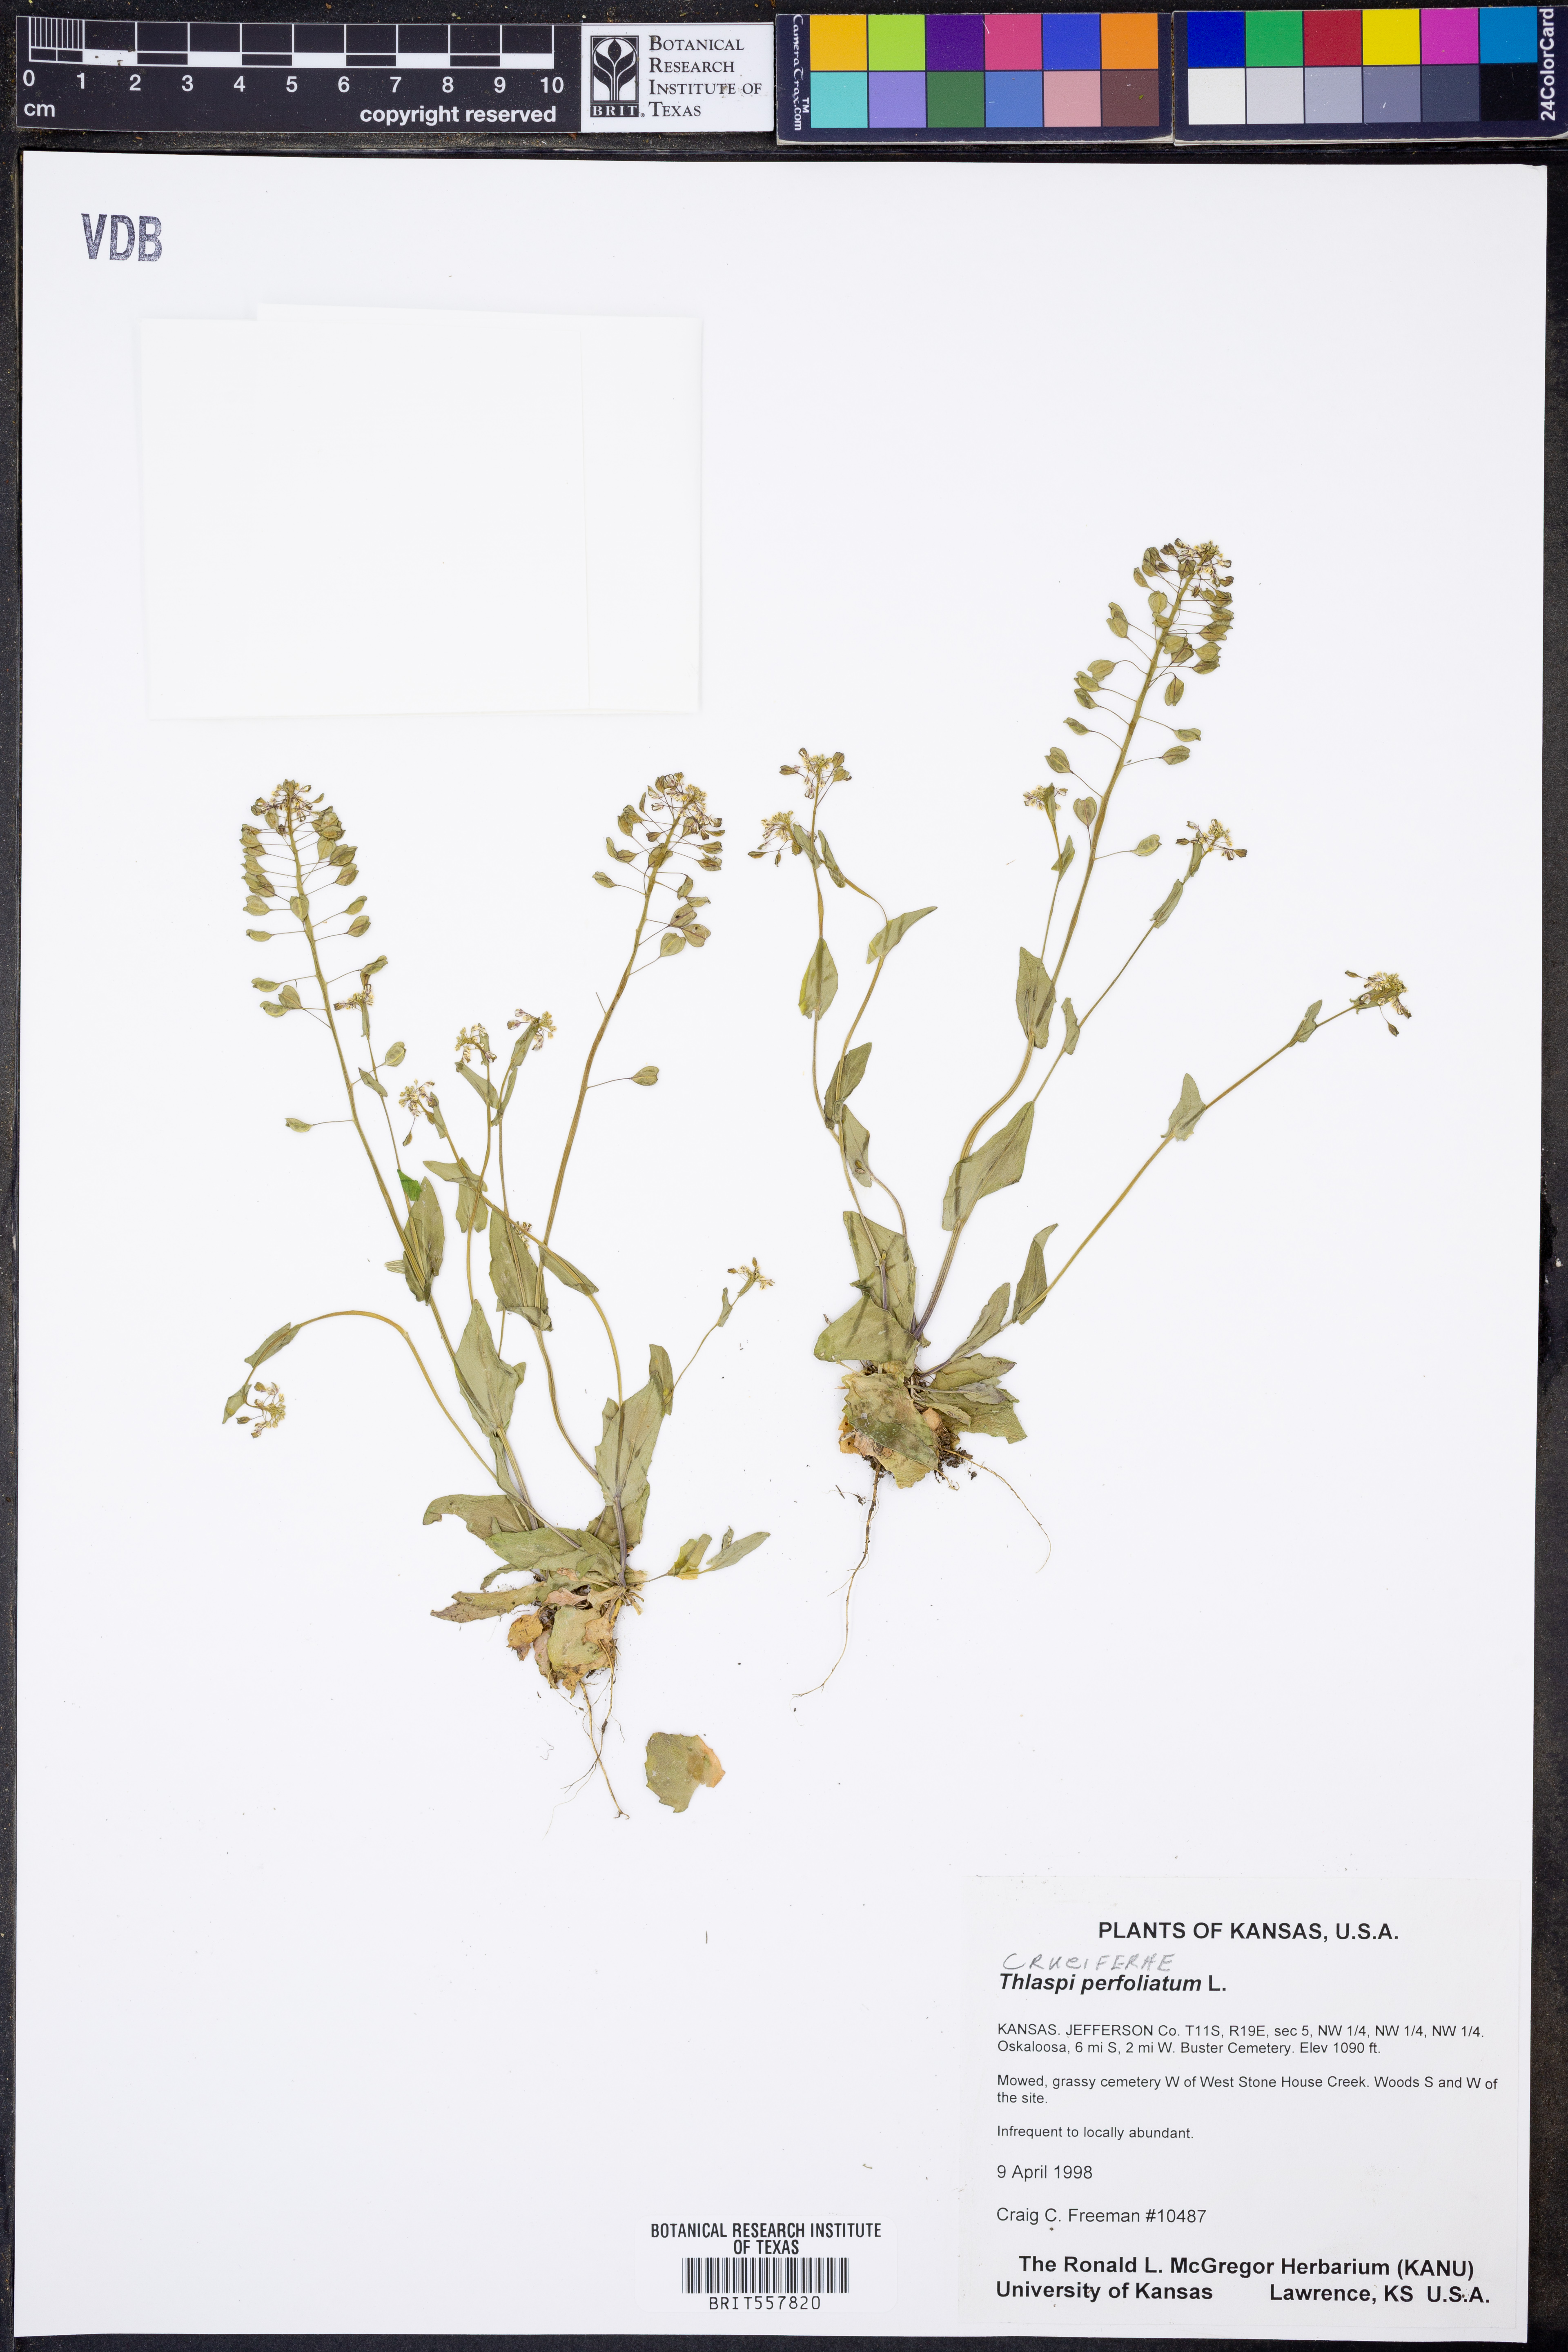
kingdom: Plantae
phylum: Tracheophyta
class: Magnoliopsida
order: Brassicales
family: Brassicaceae
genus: Noccaea
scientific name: Noccaea perfoliata
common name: Perfoliate pennycress
